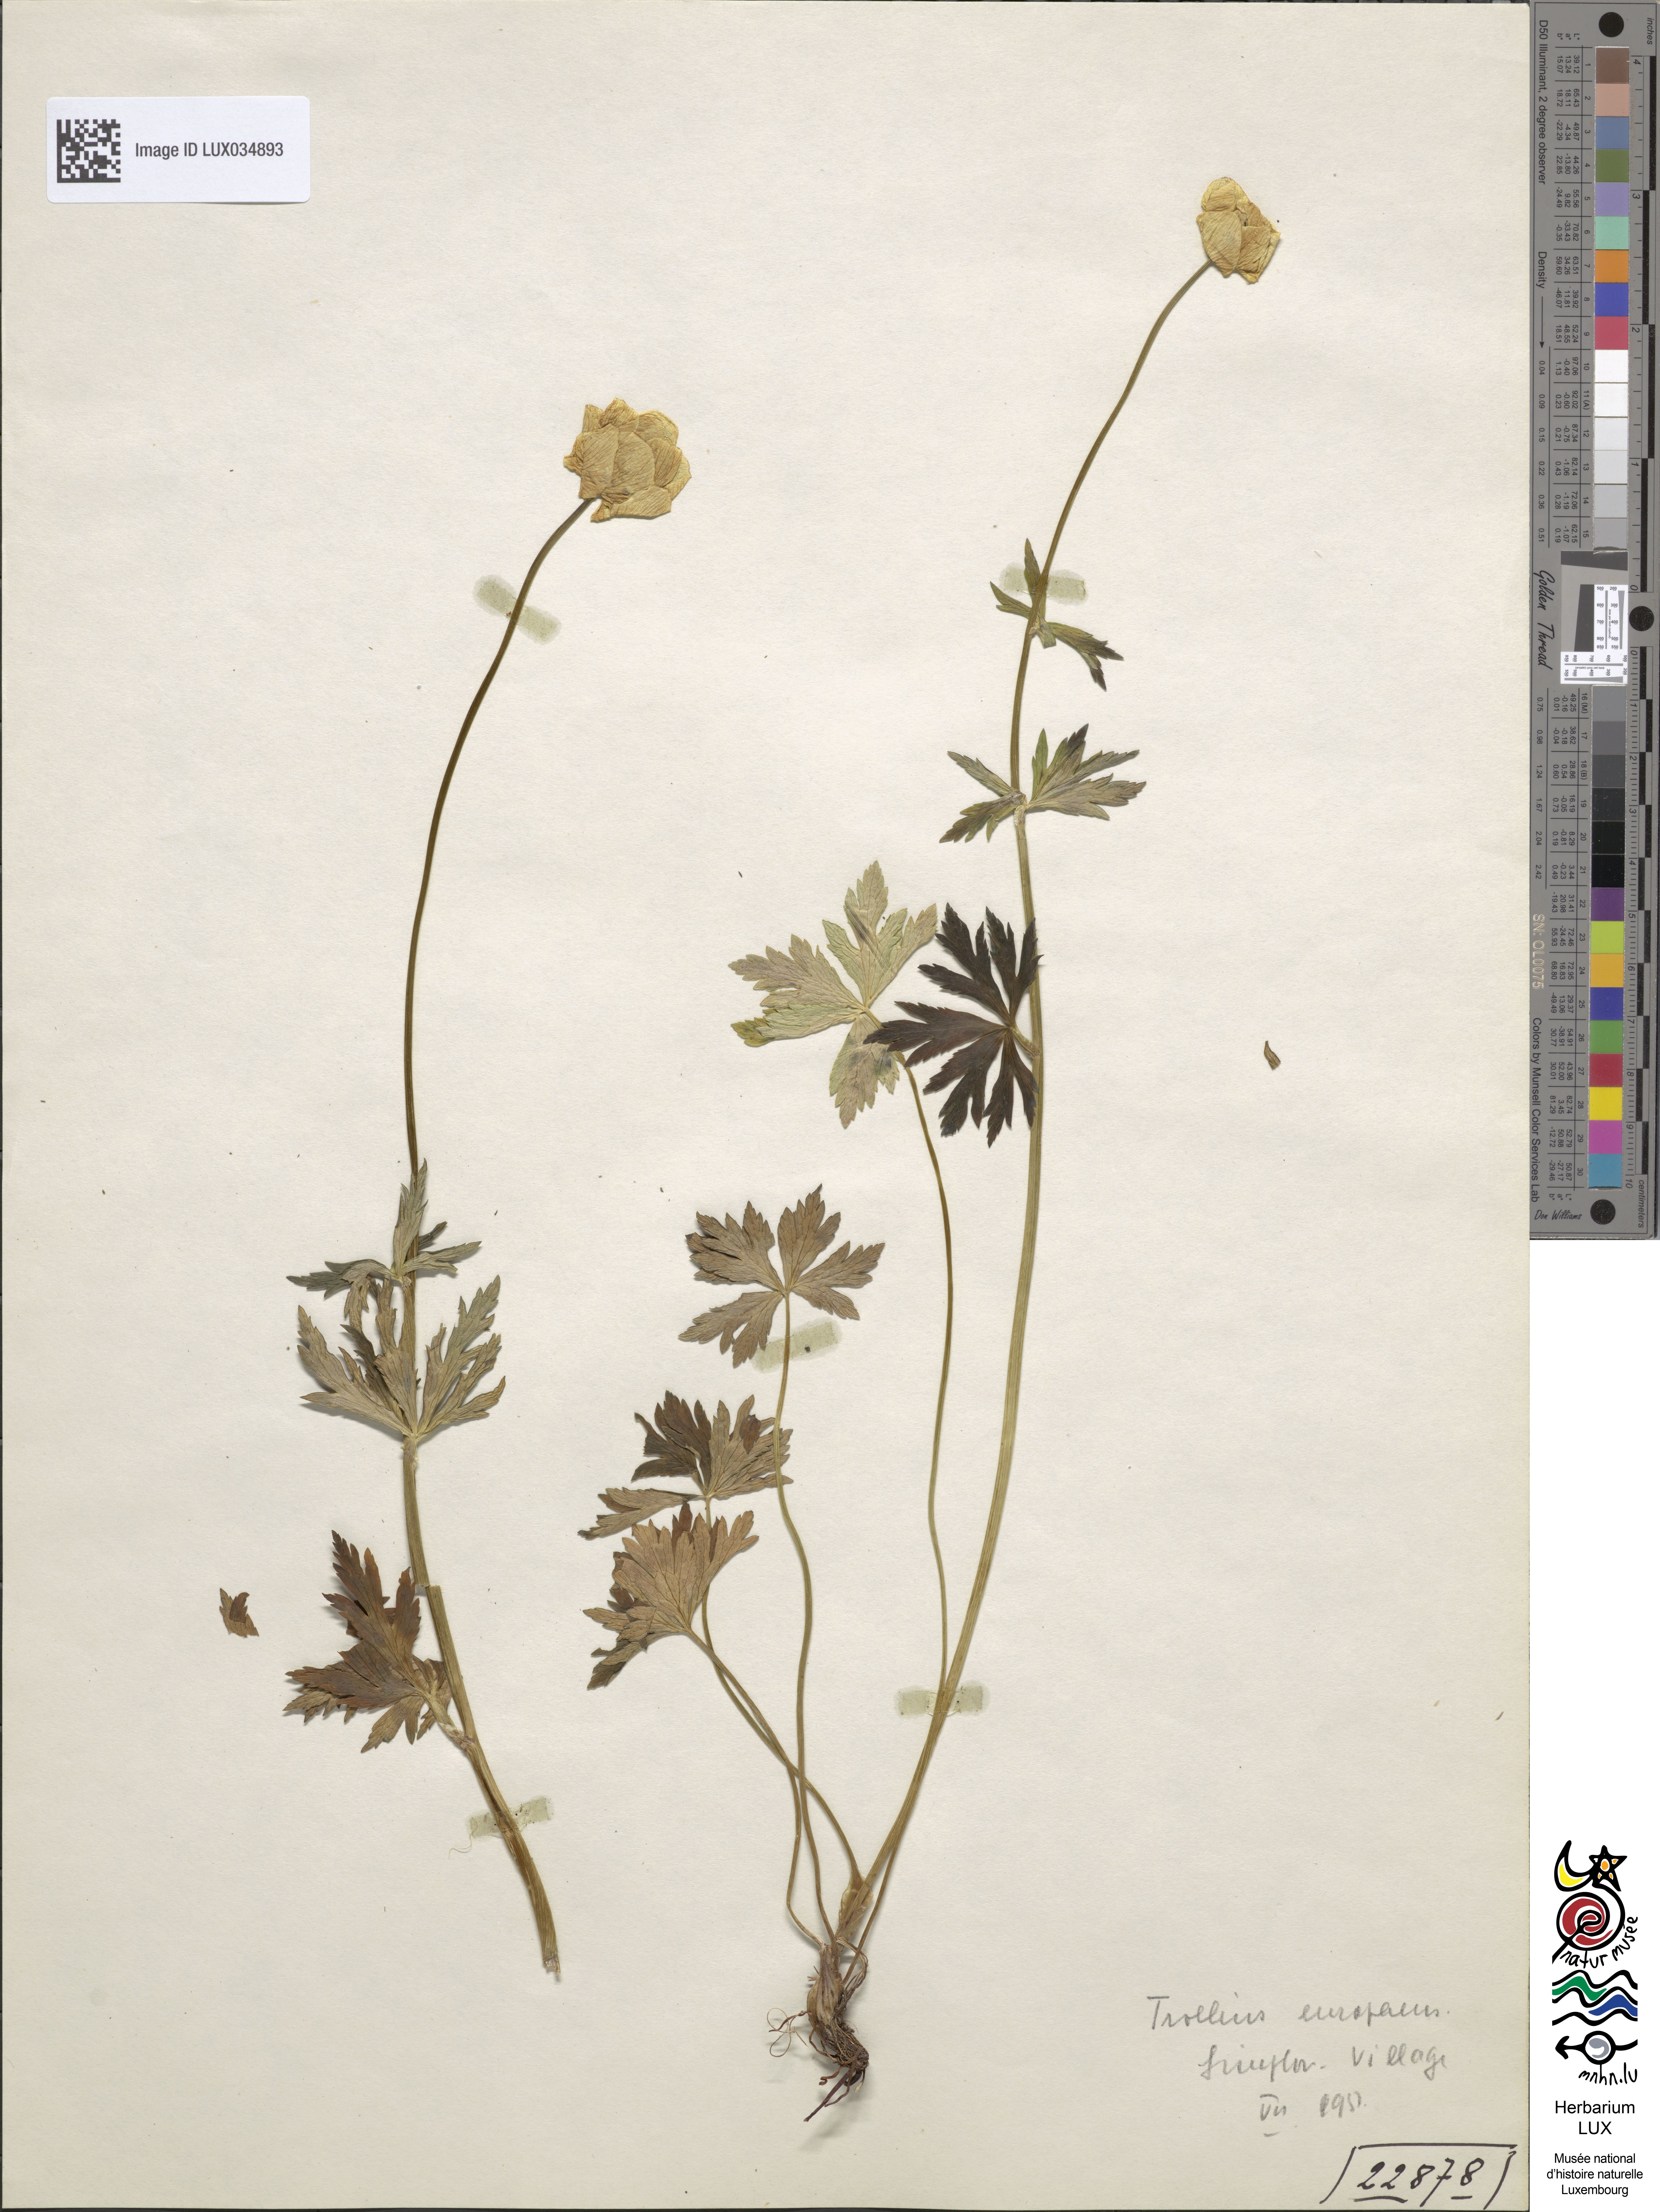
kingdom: Plantae
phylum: Tracheophyta
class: Magnoliopsida
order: Ranunculales
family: Ranunculaceae
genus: Trollius
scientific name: Trollius europaeus
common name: European globeflower
